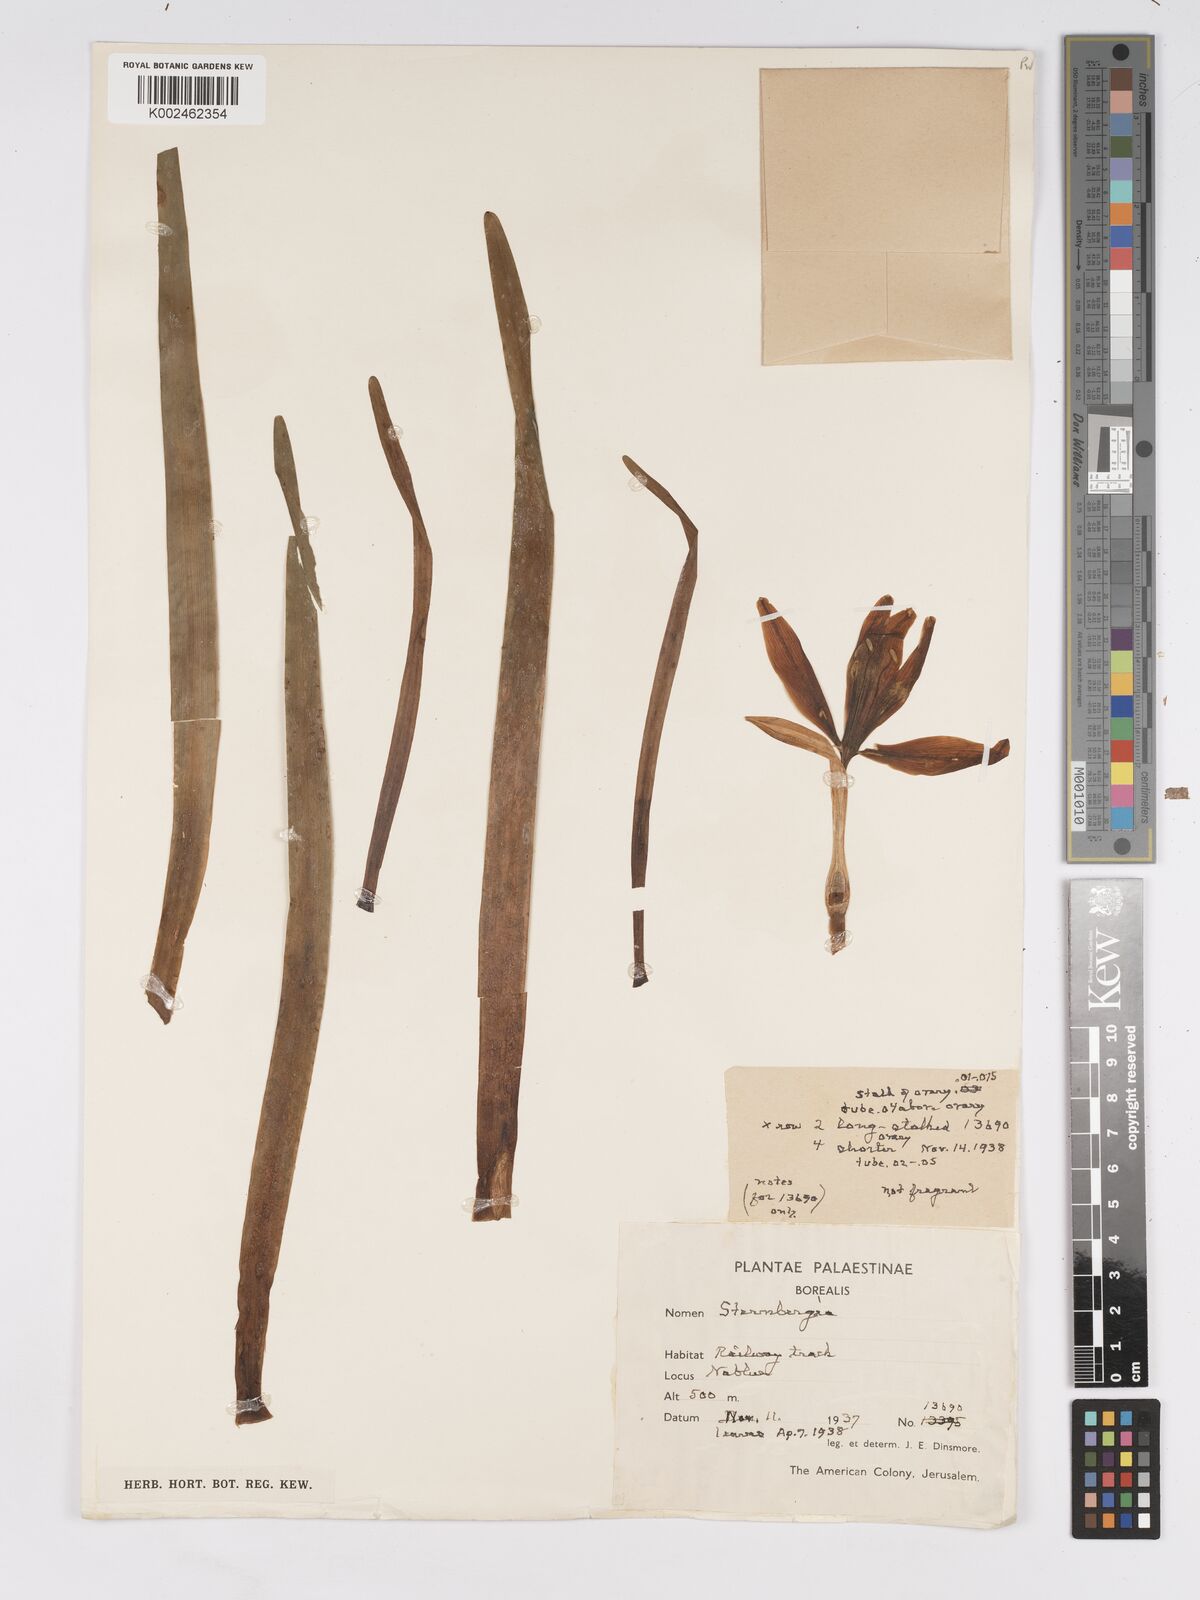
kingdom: Plantae
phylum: Tracheophyta
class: Liliopsida
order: Asparagales
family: Amaryllidaceae
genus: Sternbergia
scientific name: Sternbergia clusiana
